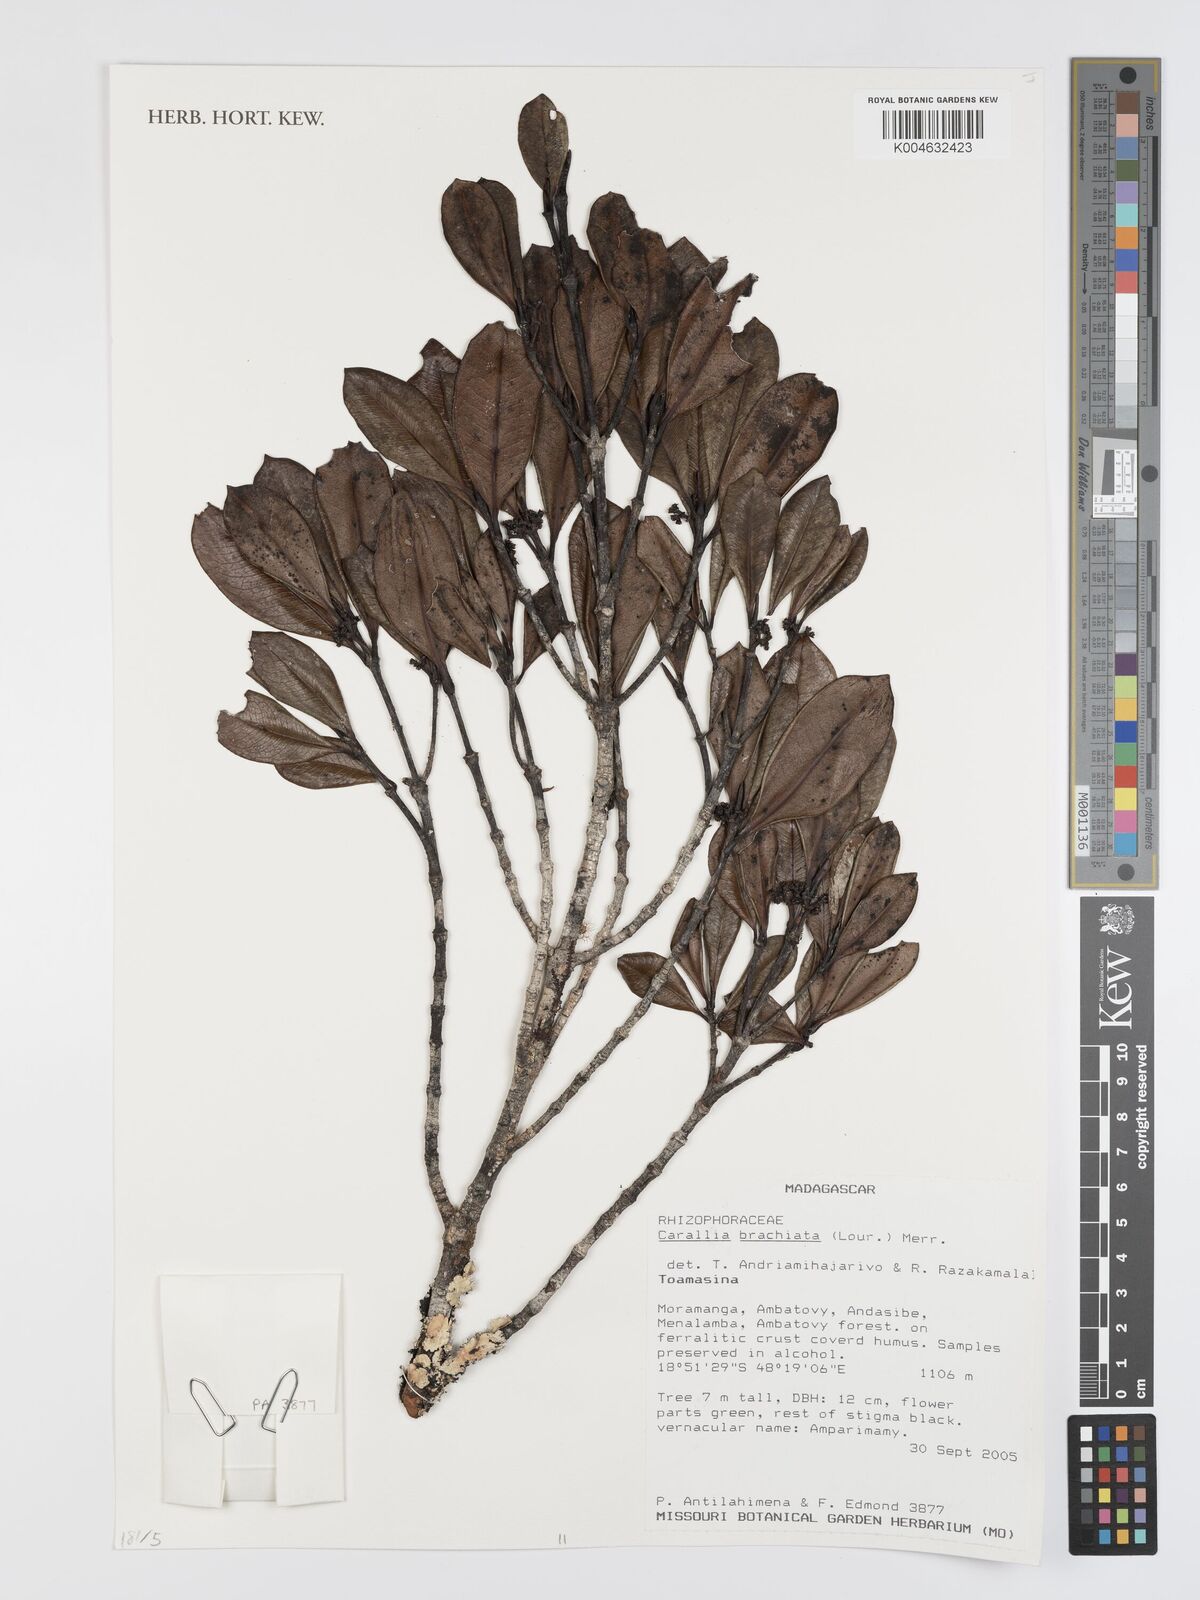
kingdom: Plantae
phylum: Tracheophyta
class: Magnoliopsida
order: Malpighiales
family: Rhizophoraceae
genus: Carallia
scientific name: Carallia brachiata
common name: Carallawood
